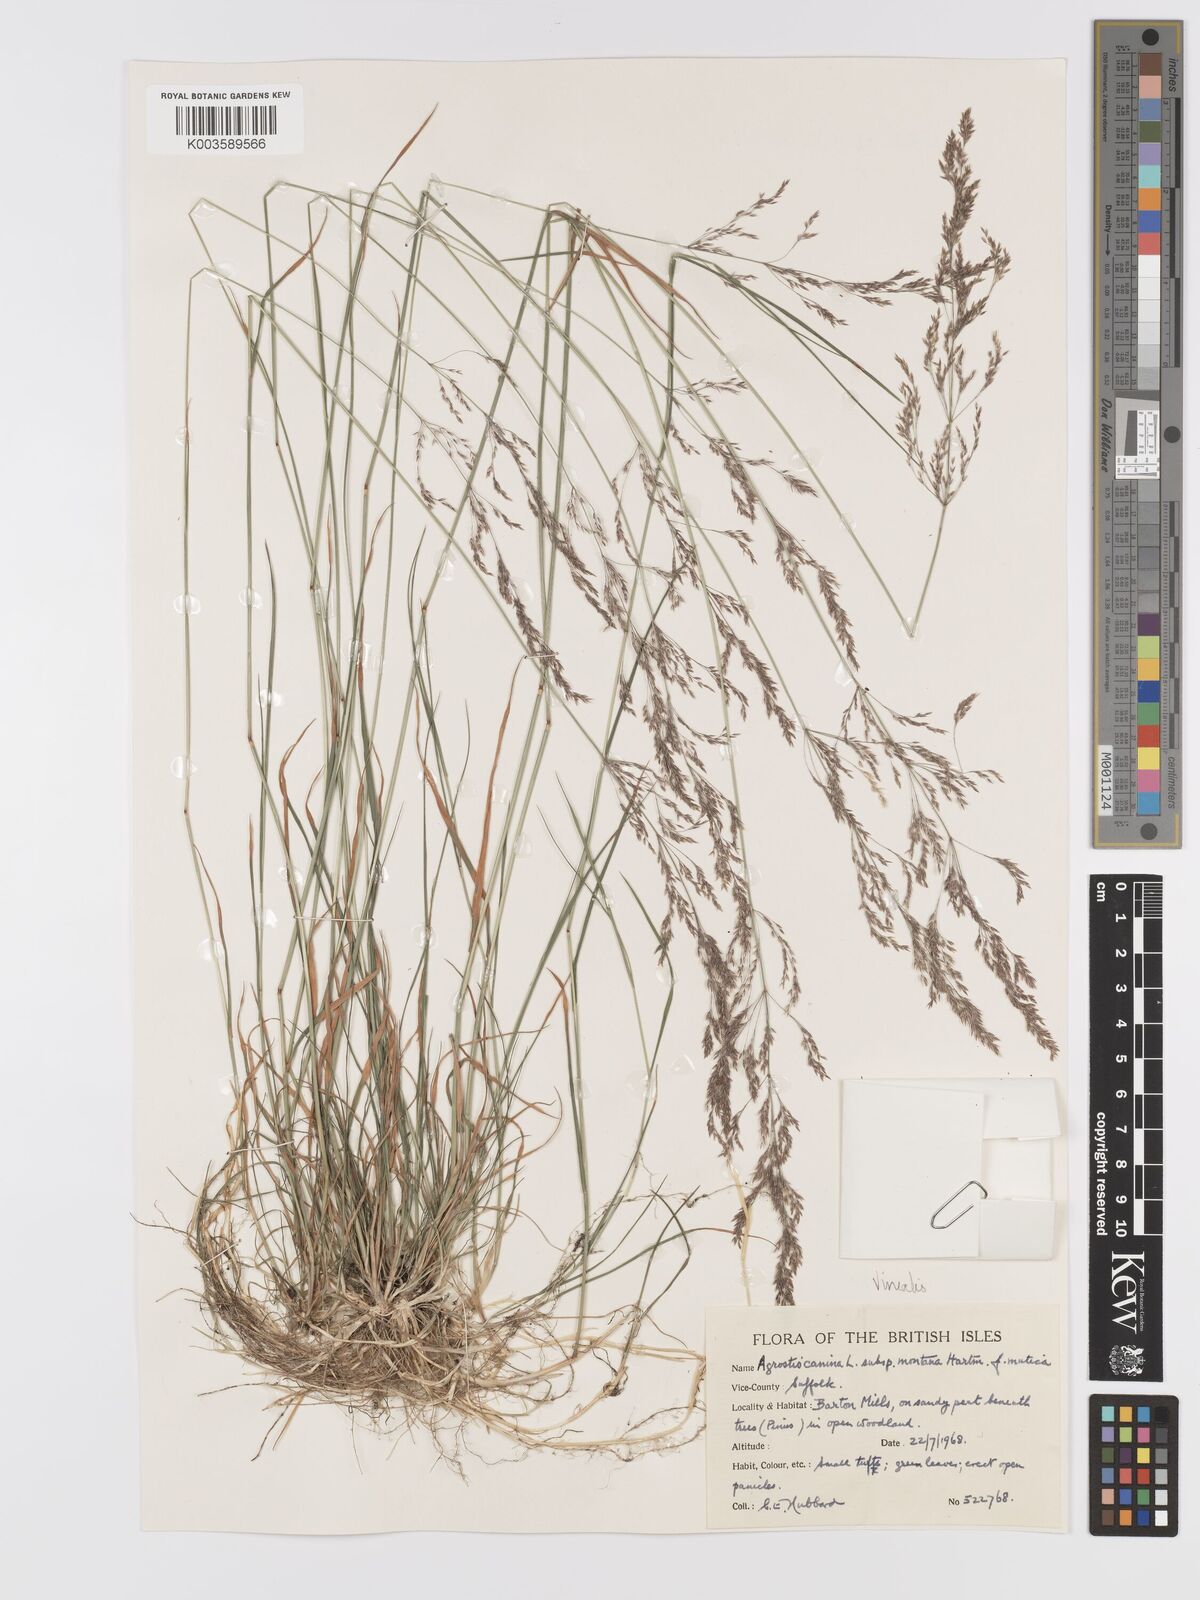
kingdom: Plantae
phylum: Tracheophyta
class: Liliopsida
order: Poales
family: Poaceae
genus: Agrostis
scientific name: Agrostis
